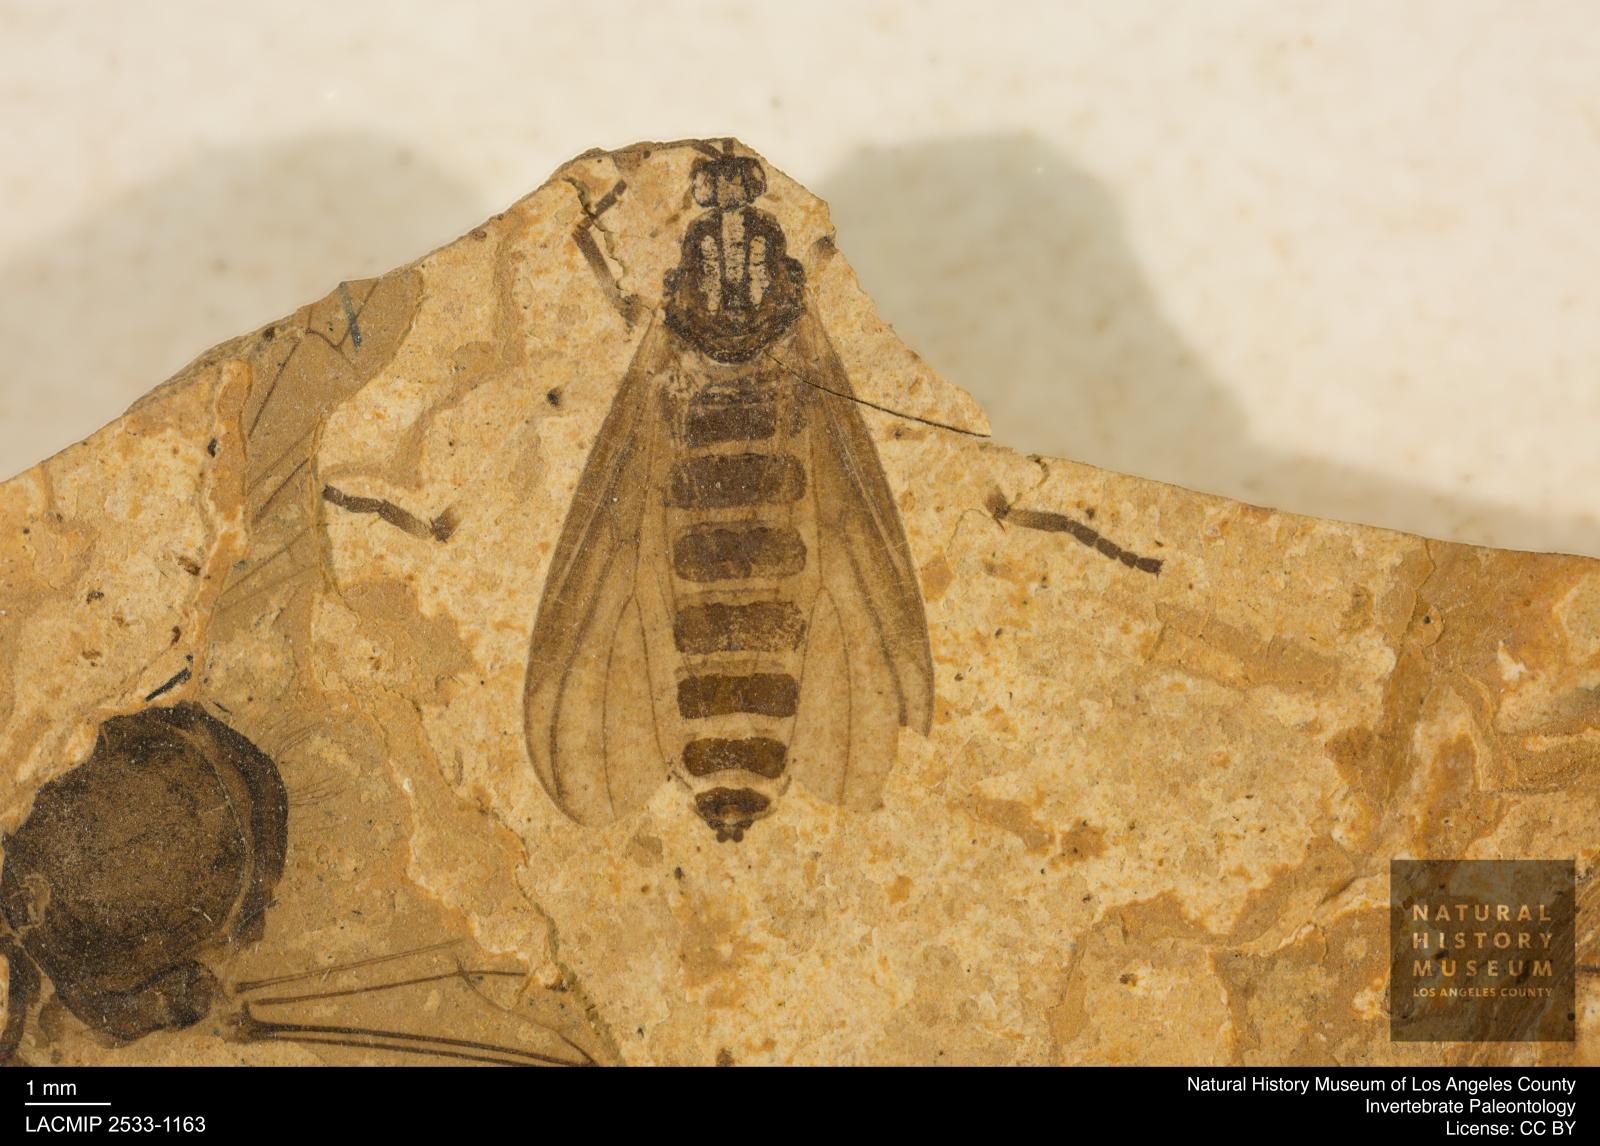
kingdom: Animalia
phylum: Arthropoda
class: Insecta
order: Diptera
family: Bibionidae
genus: Plecia
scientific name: Plecia pinguis
